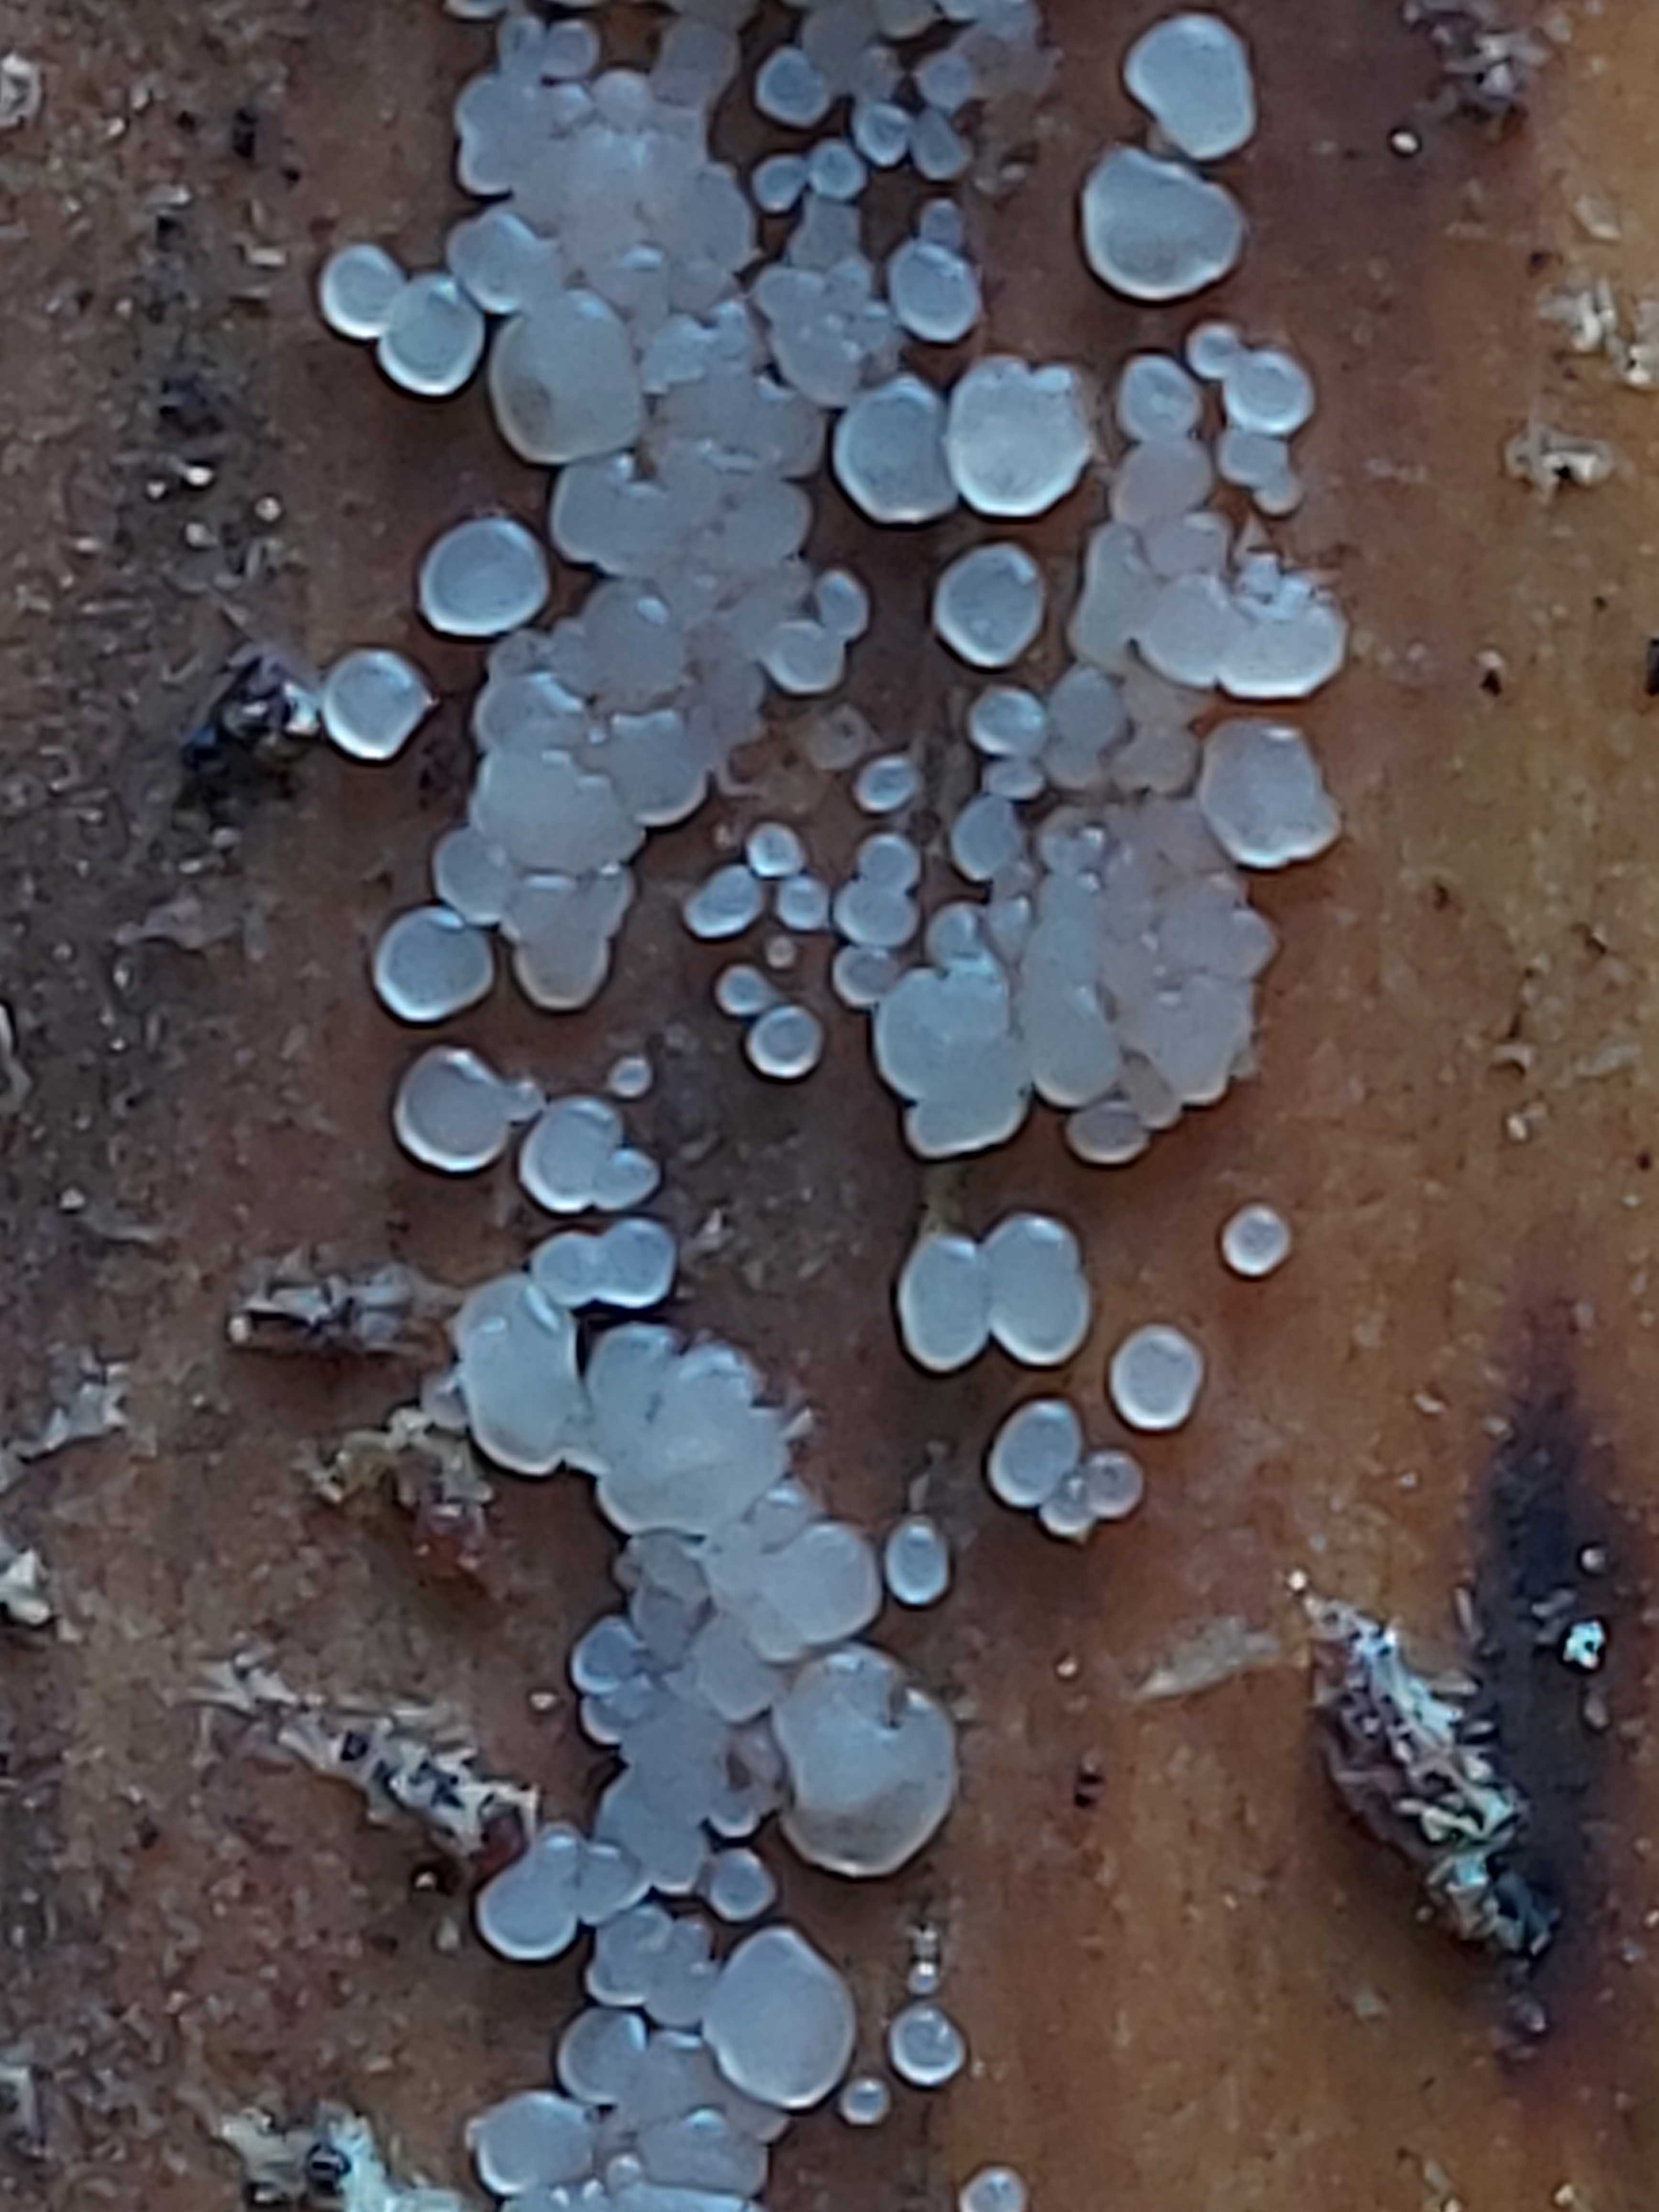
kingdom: Fungi
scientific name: Fungi
